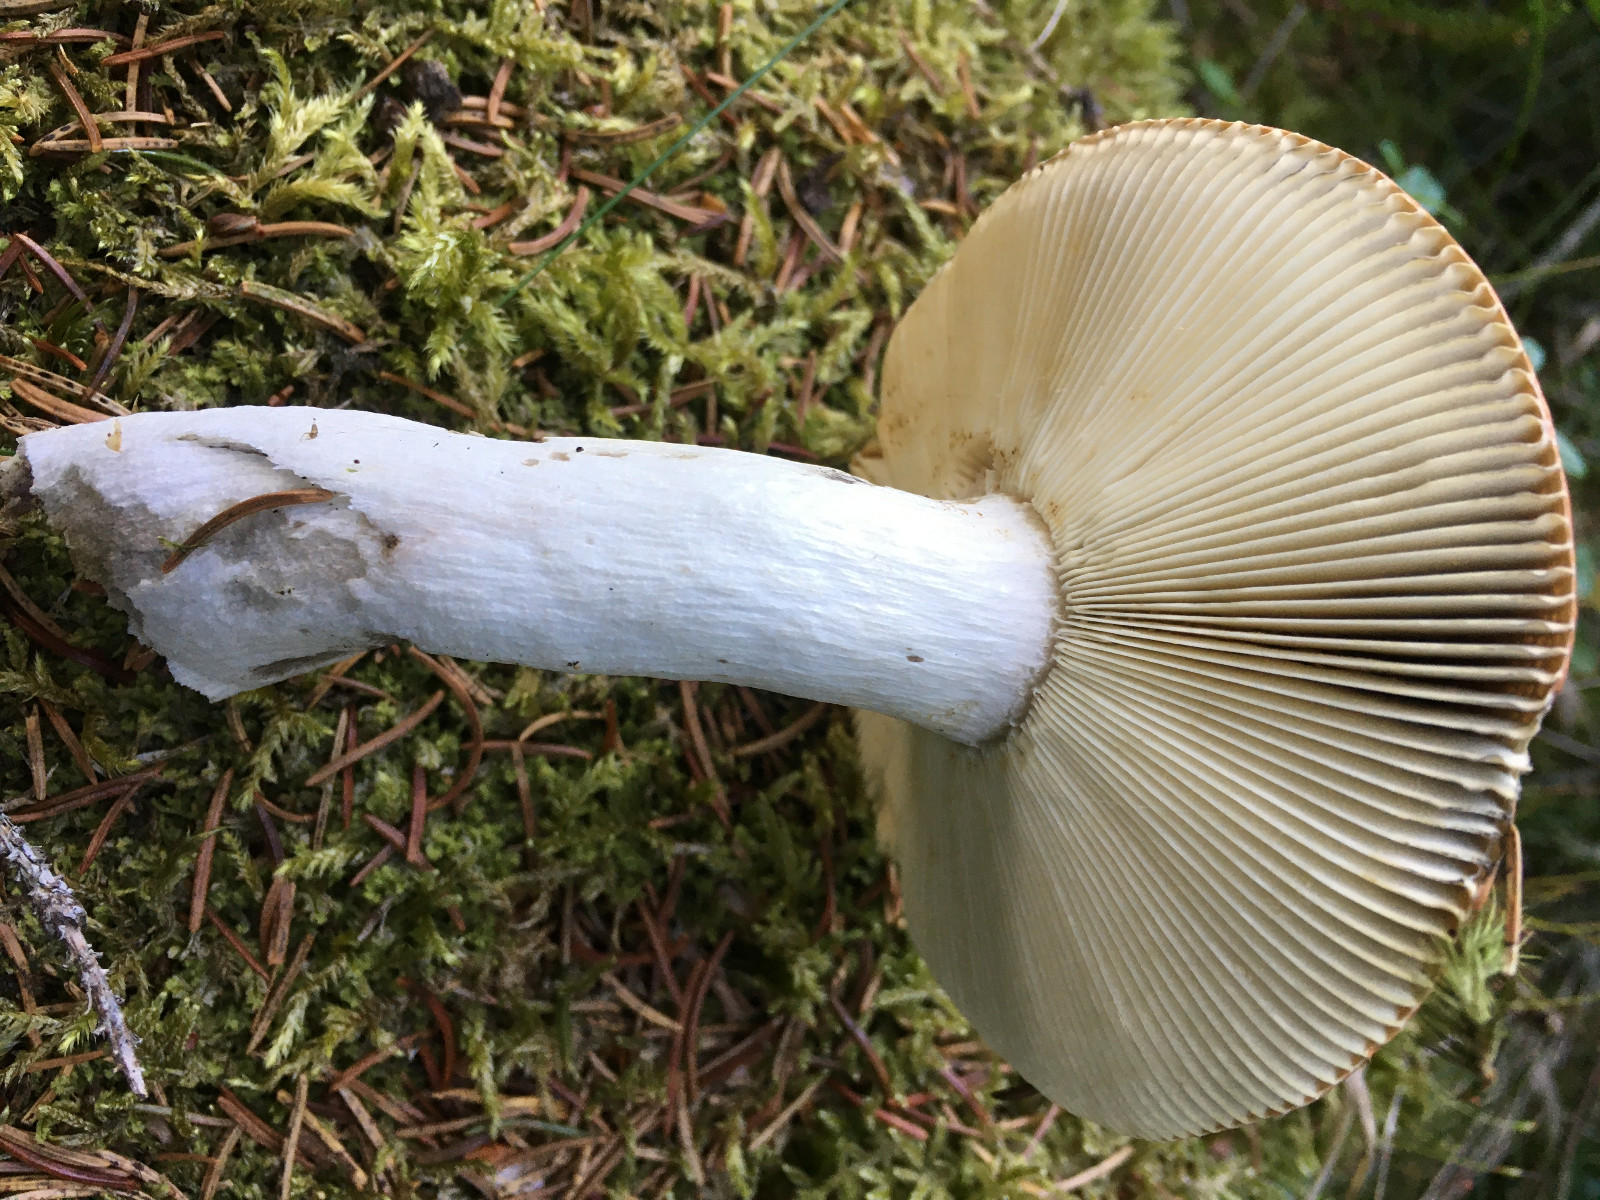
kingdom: Fungi
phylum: Basidiomycota
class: Agaricomycetes
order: Russulales
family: Russulaceae
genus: Russula
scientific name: Russula decolorans
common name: afblegende skørhat
